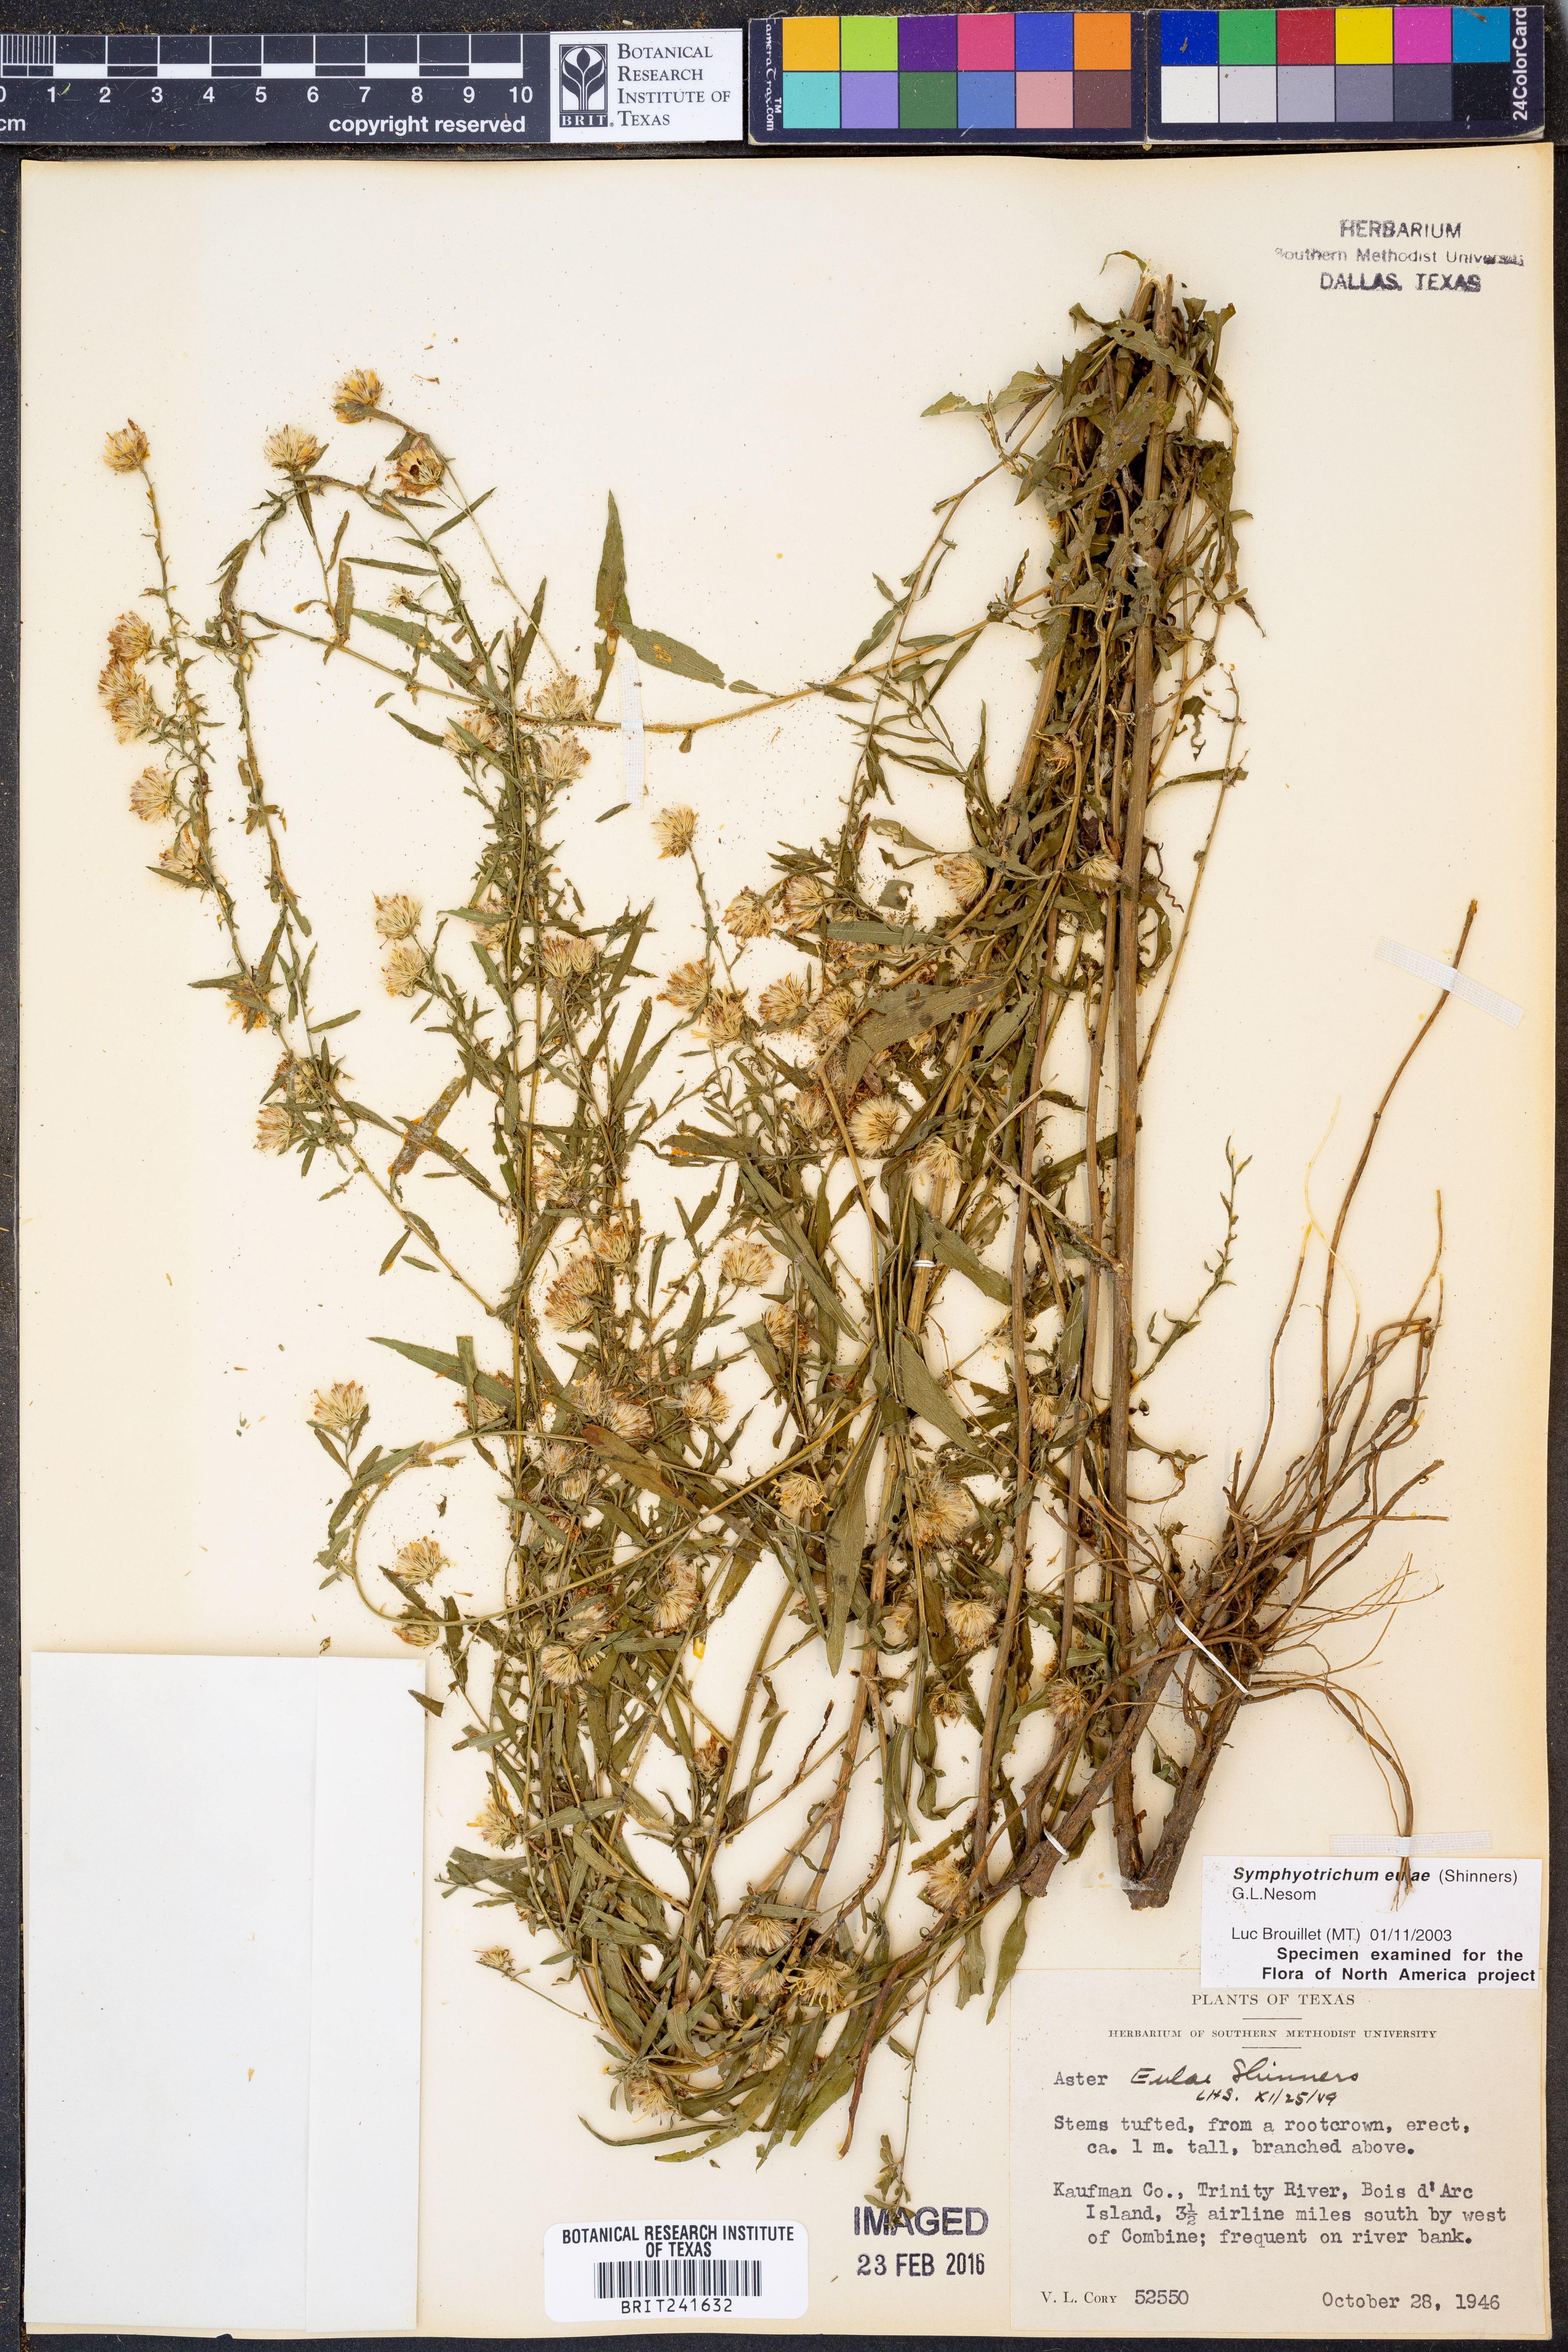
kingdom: Plantae
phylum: Tracheophyta
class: Magnoliopsida
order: Asterales
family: Asteraceae
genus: Symphyotrichum
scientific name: Symphyotrichum eulae
